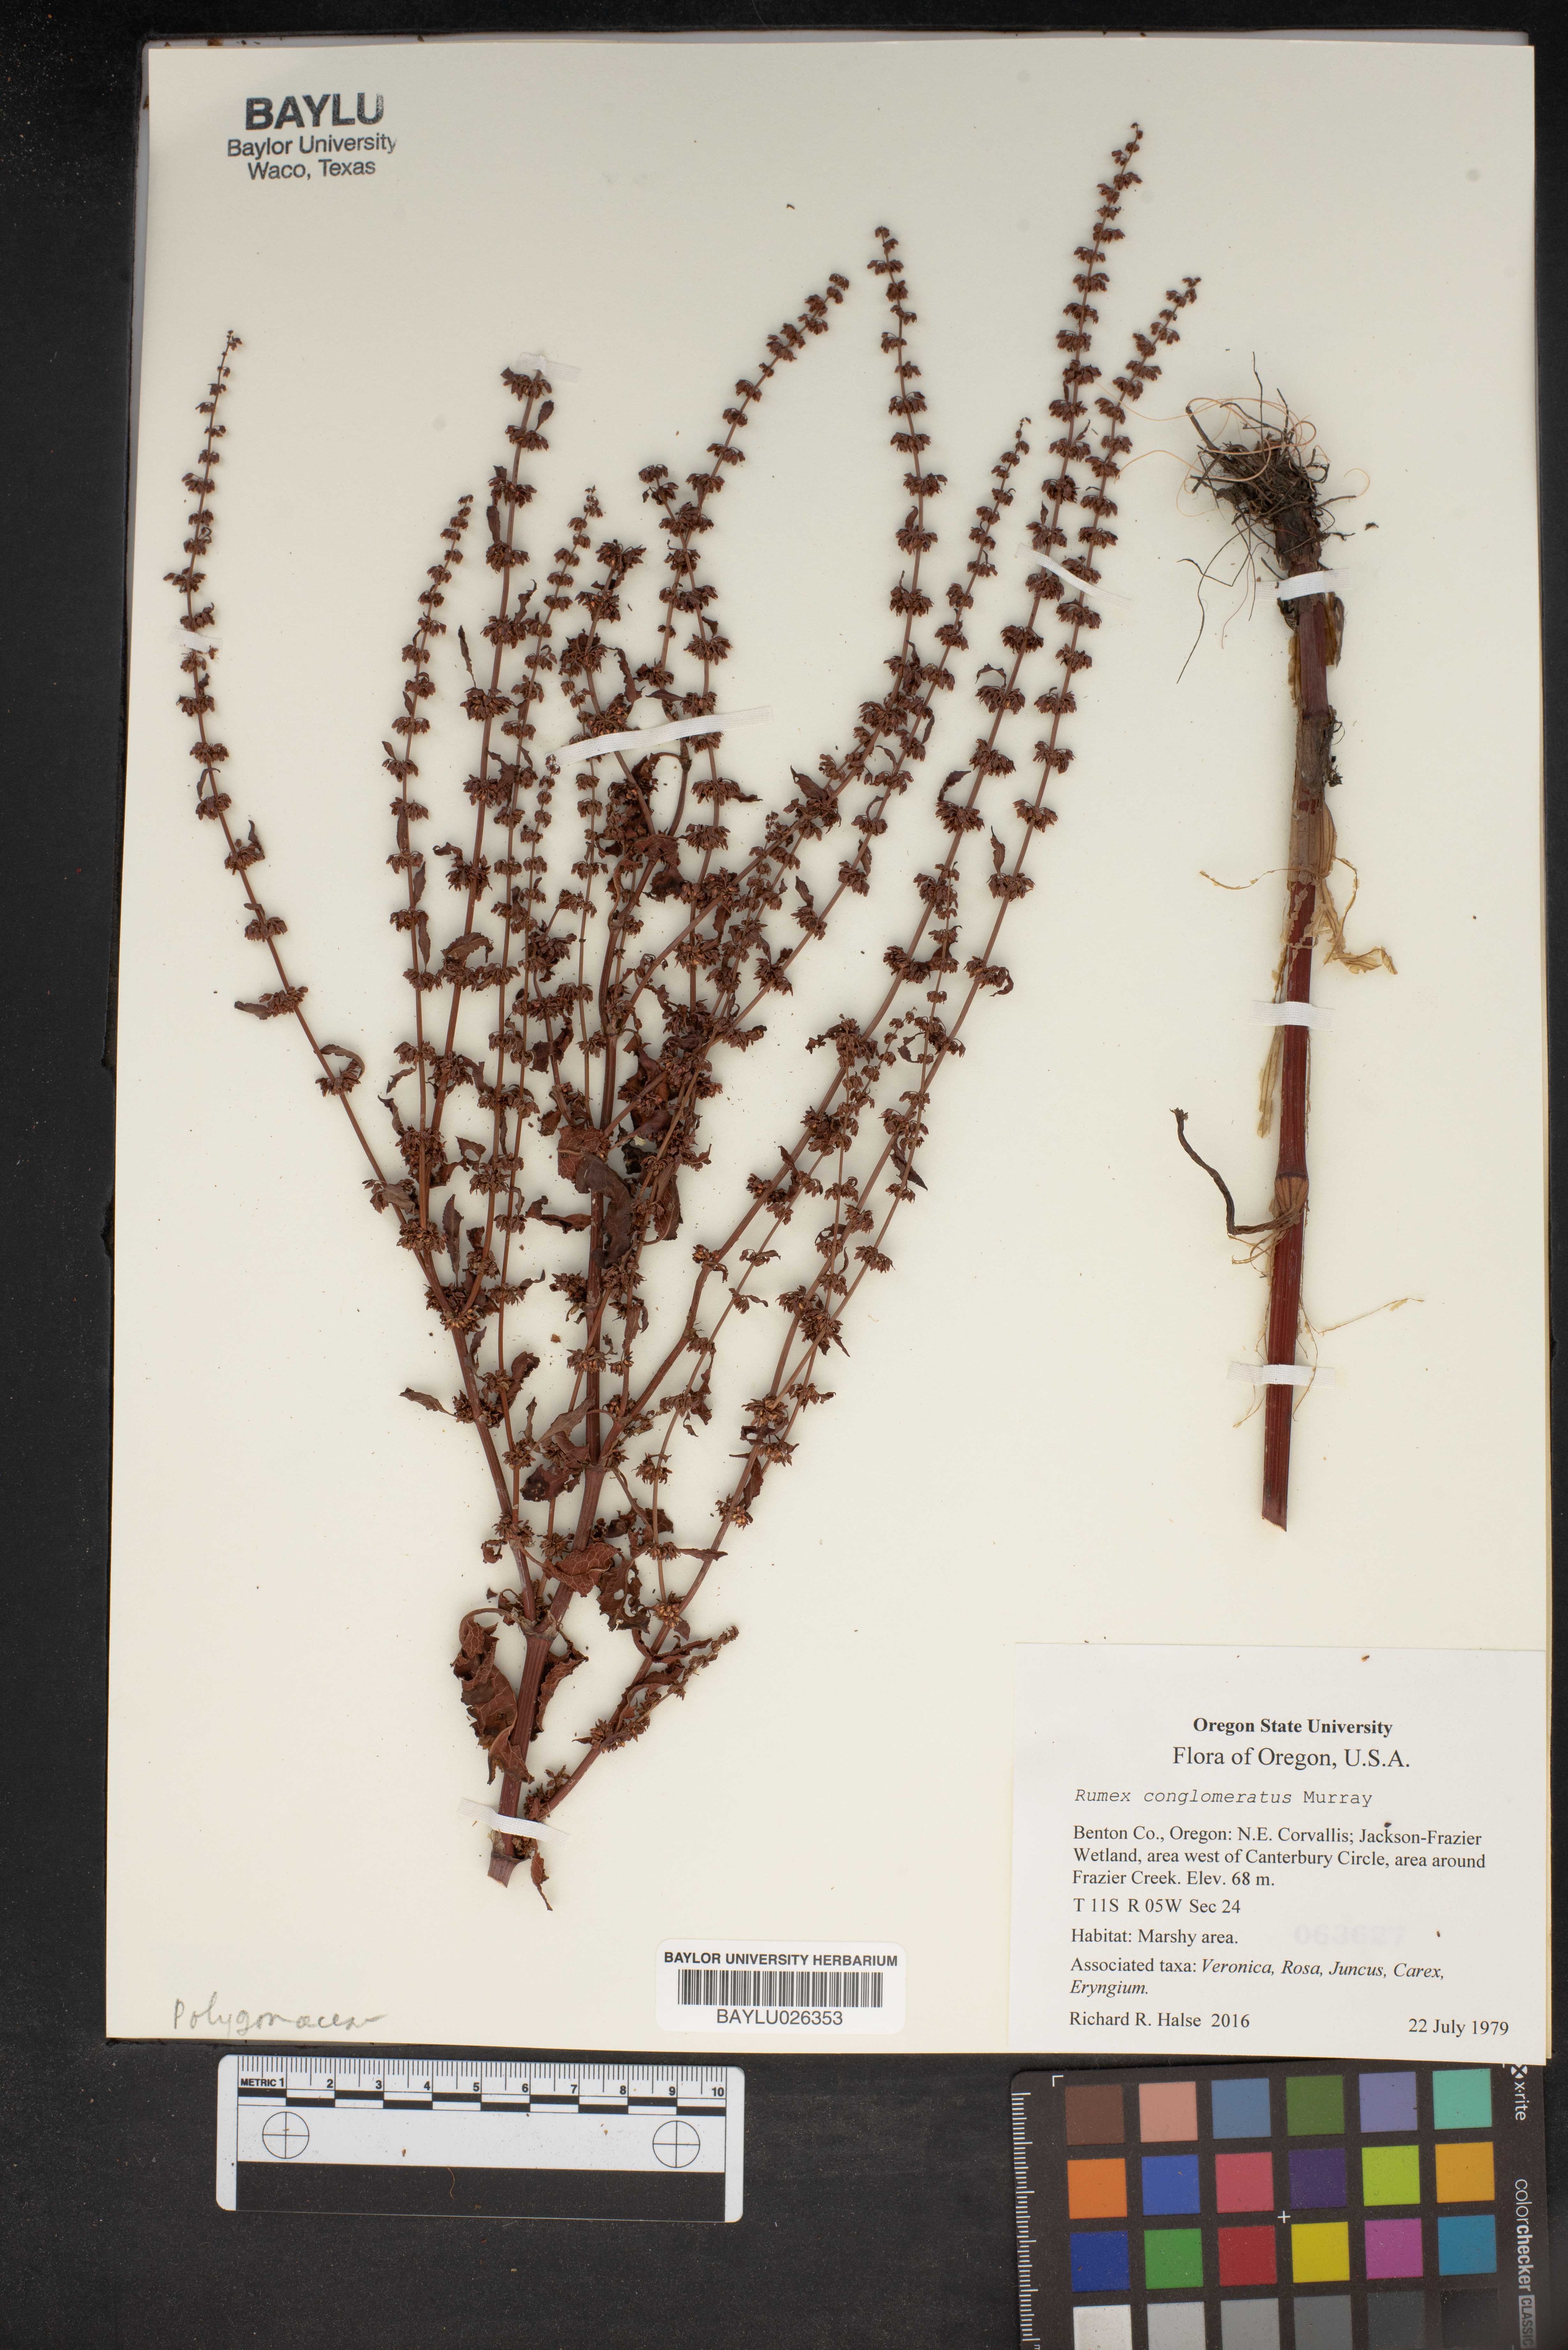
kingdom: Plantae
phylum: Tracheophyta
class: Magnoliopsida
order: Caryophyllales
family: Polygonaceae
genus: Rumex
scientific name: Rumex conglomeratus
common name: Clustered dock
